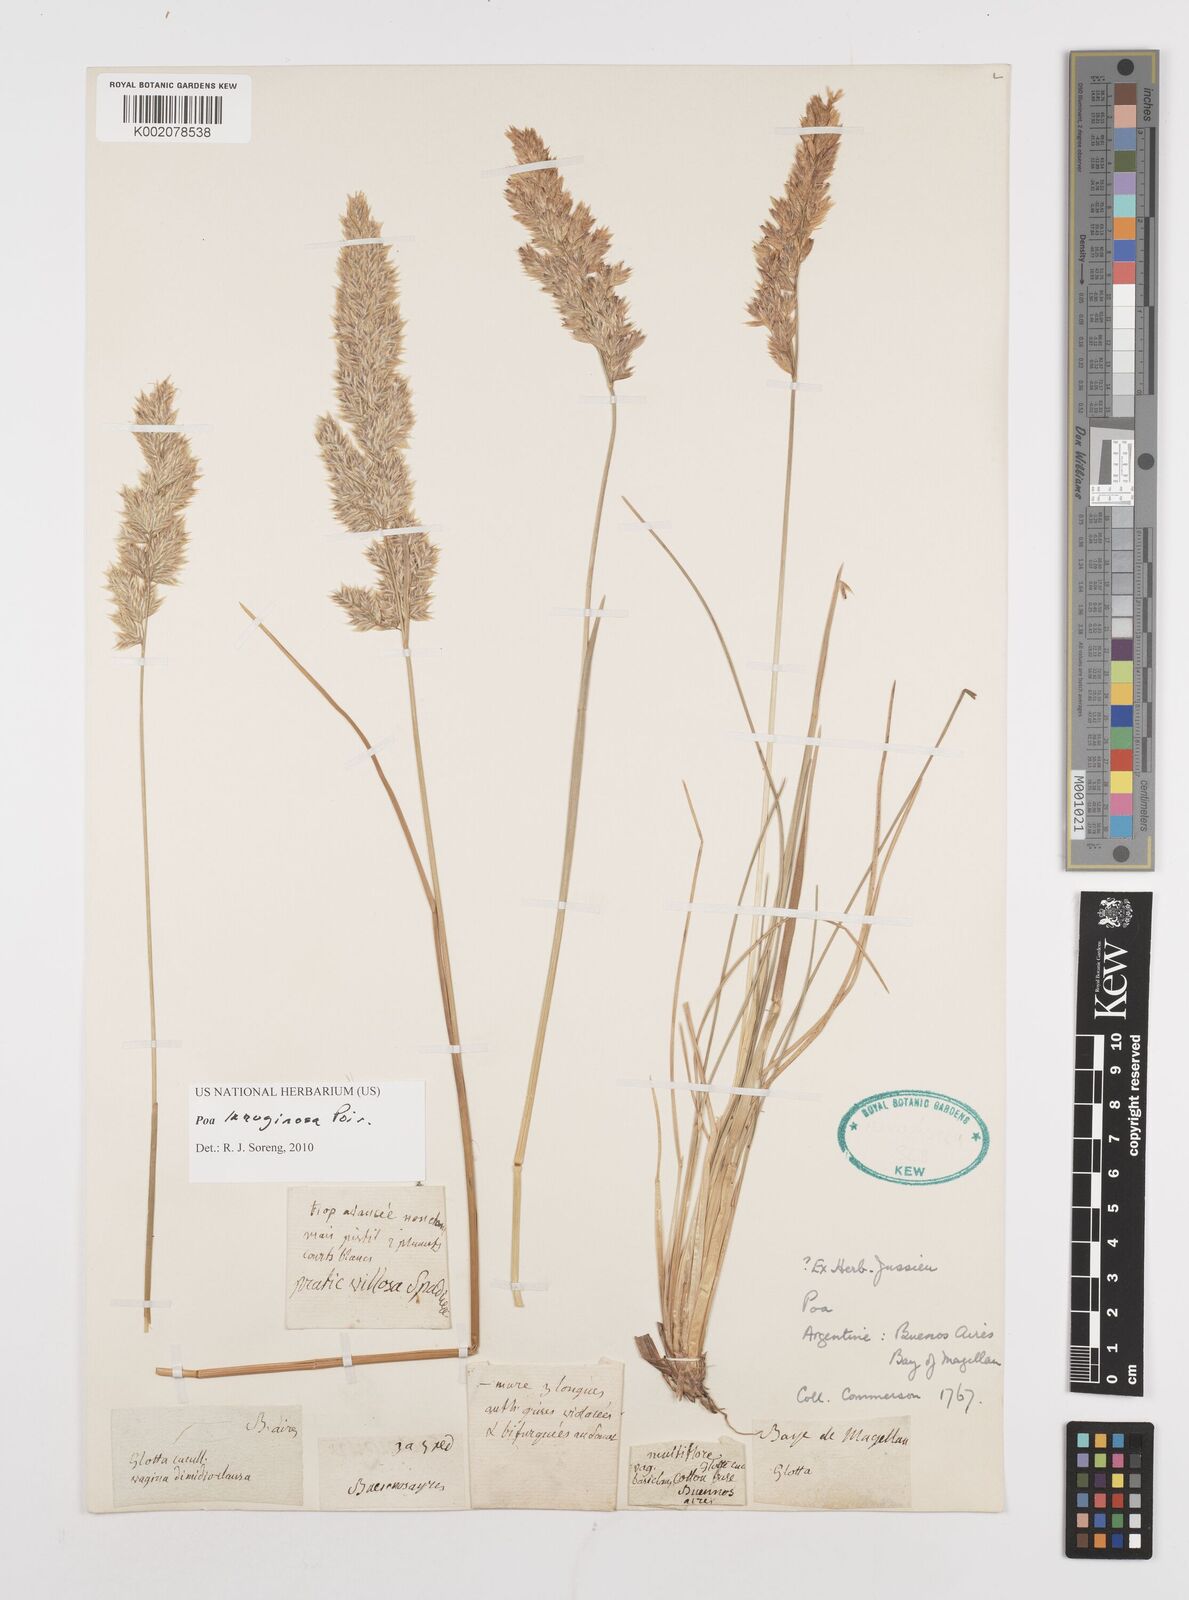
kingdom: Plantae
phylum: Tracheophyta
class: Liliopsida
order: Poales
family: Poaceae
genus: Poa
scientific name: Poa lanuginosa
